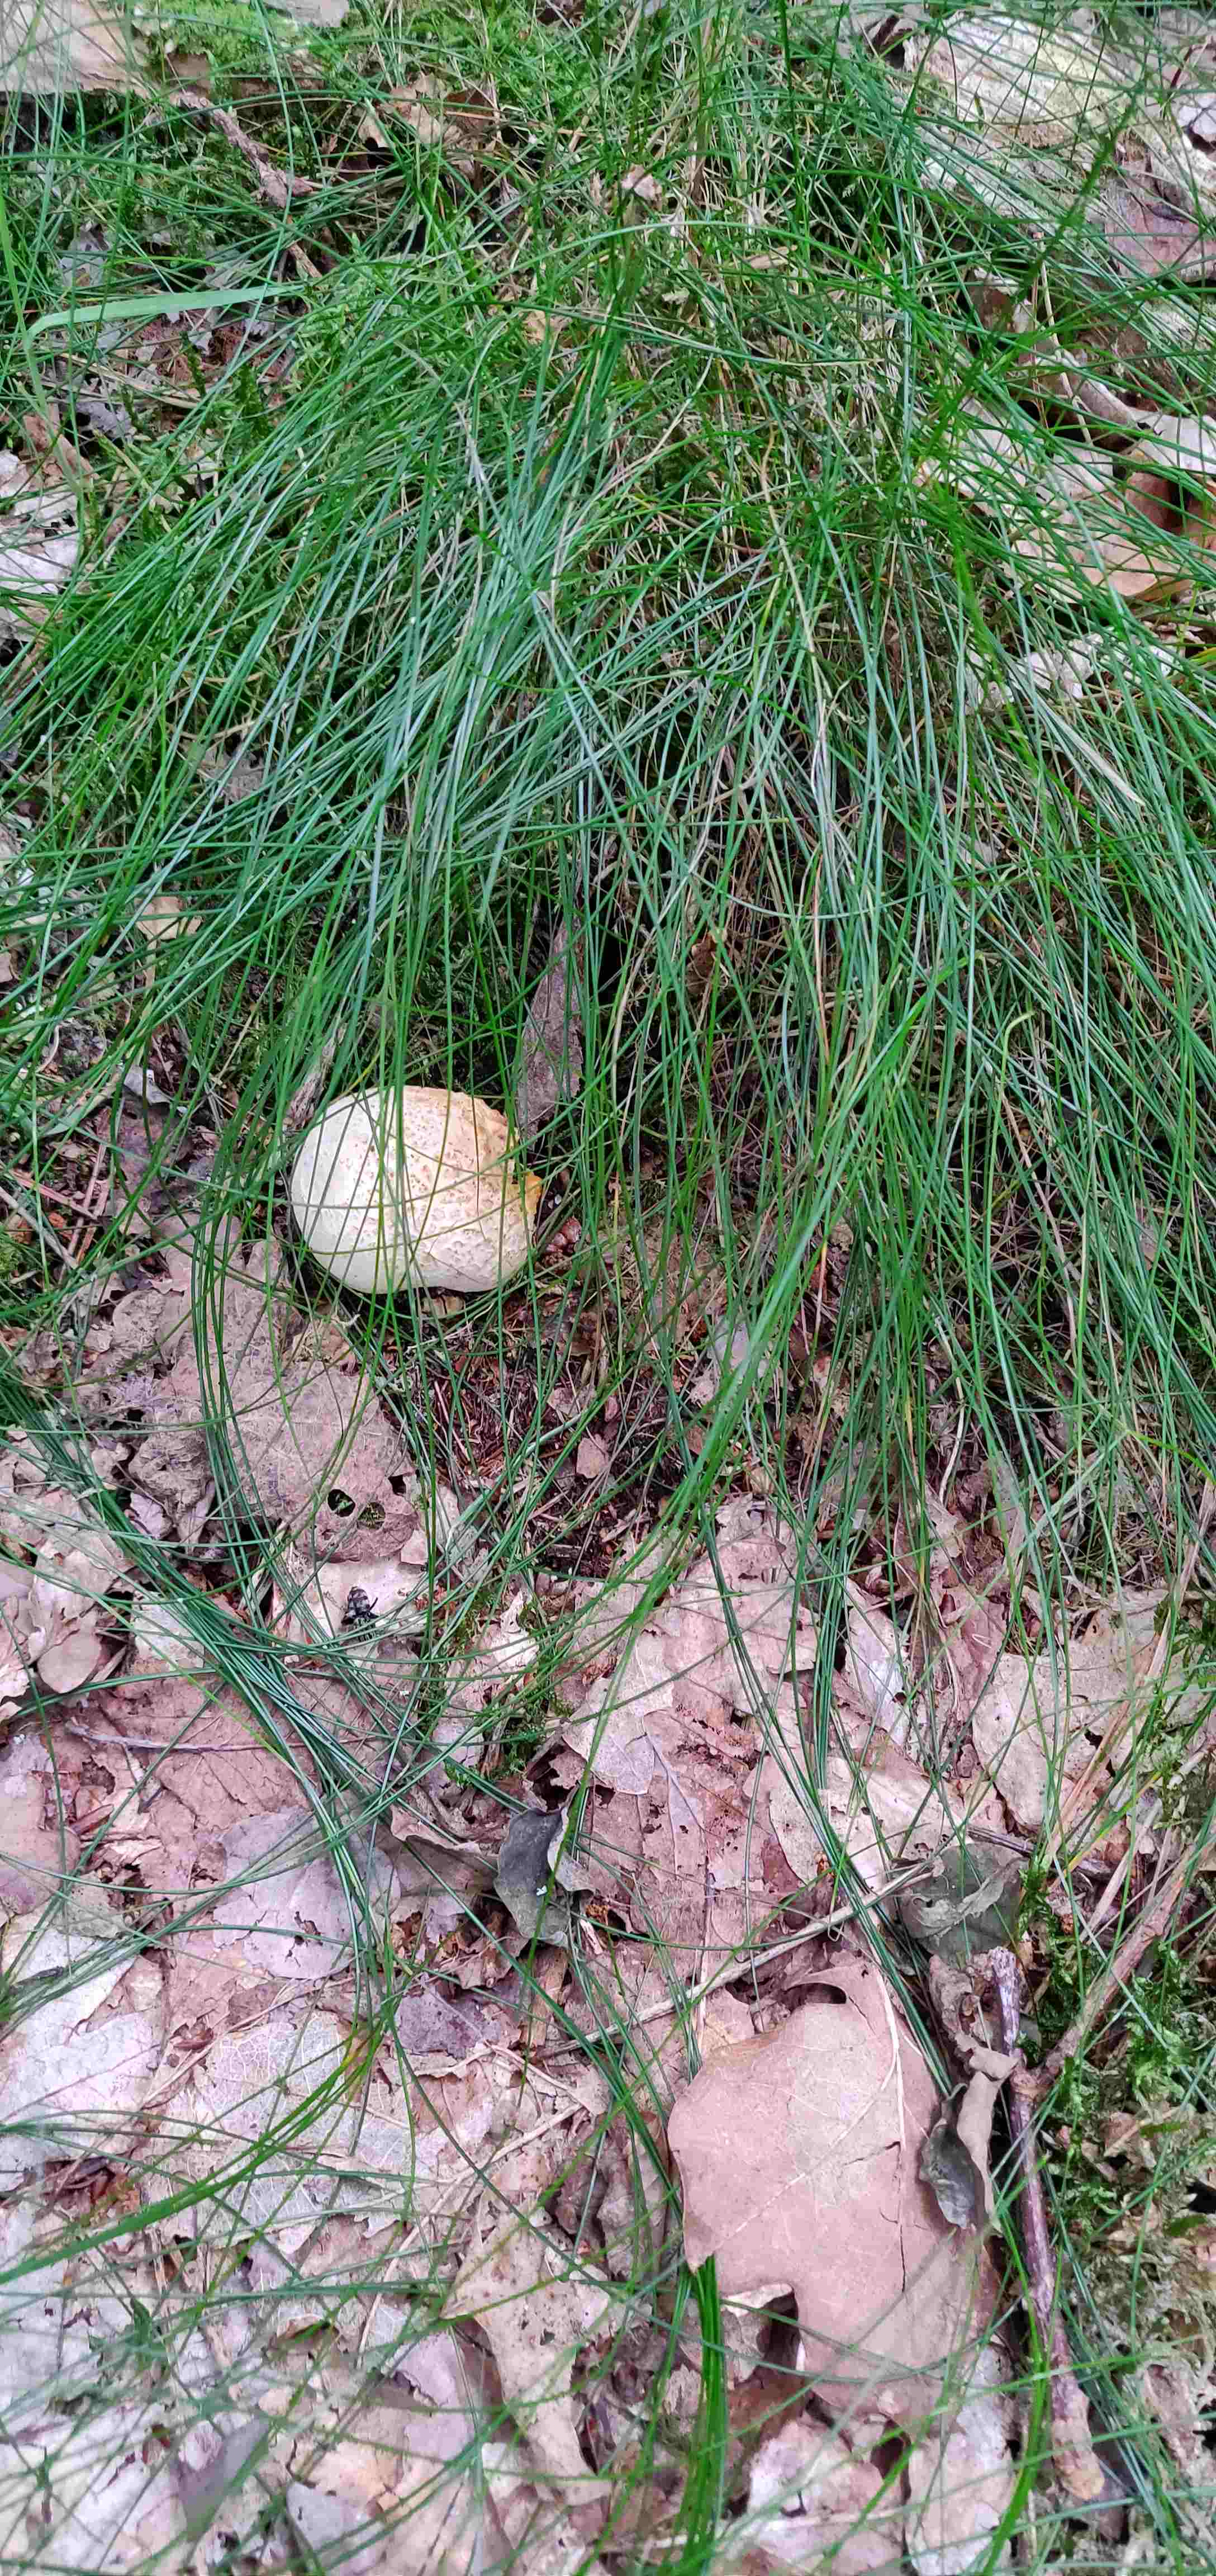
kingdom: Fungi
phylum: Basidiomycota
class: Agaricomycetes
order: Boletales
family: Sclerodermataceae
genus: Scleroderma
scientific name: Scleroderma citrinum
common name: almindelig bruskbold
